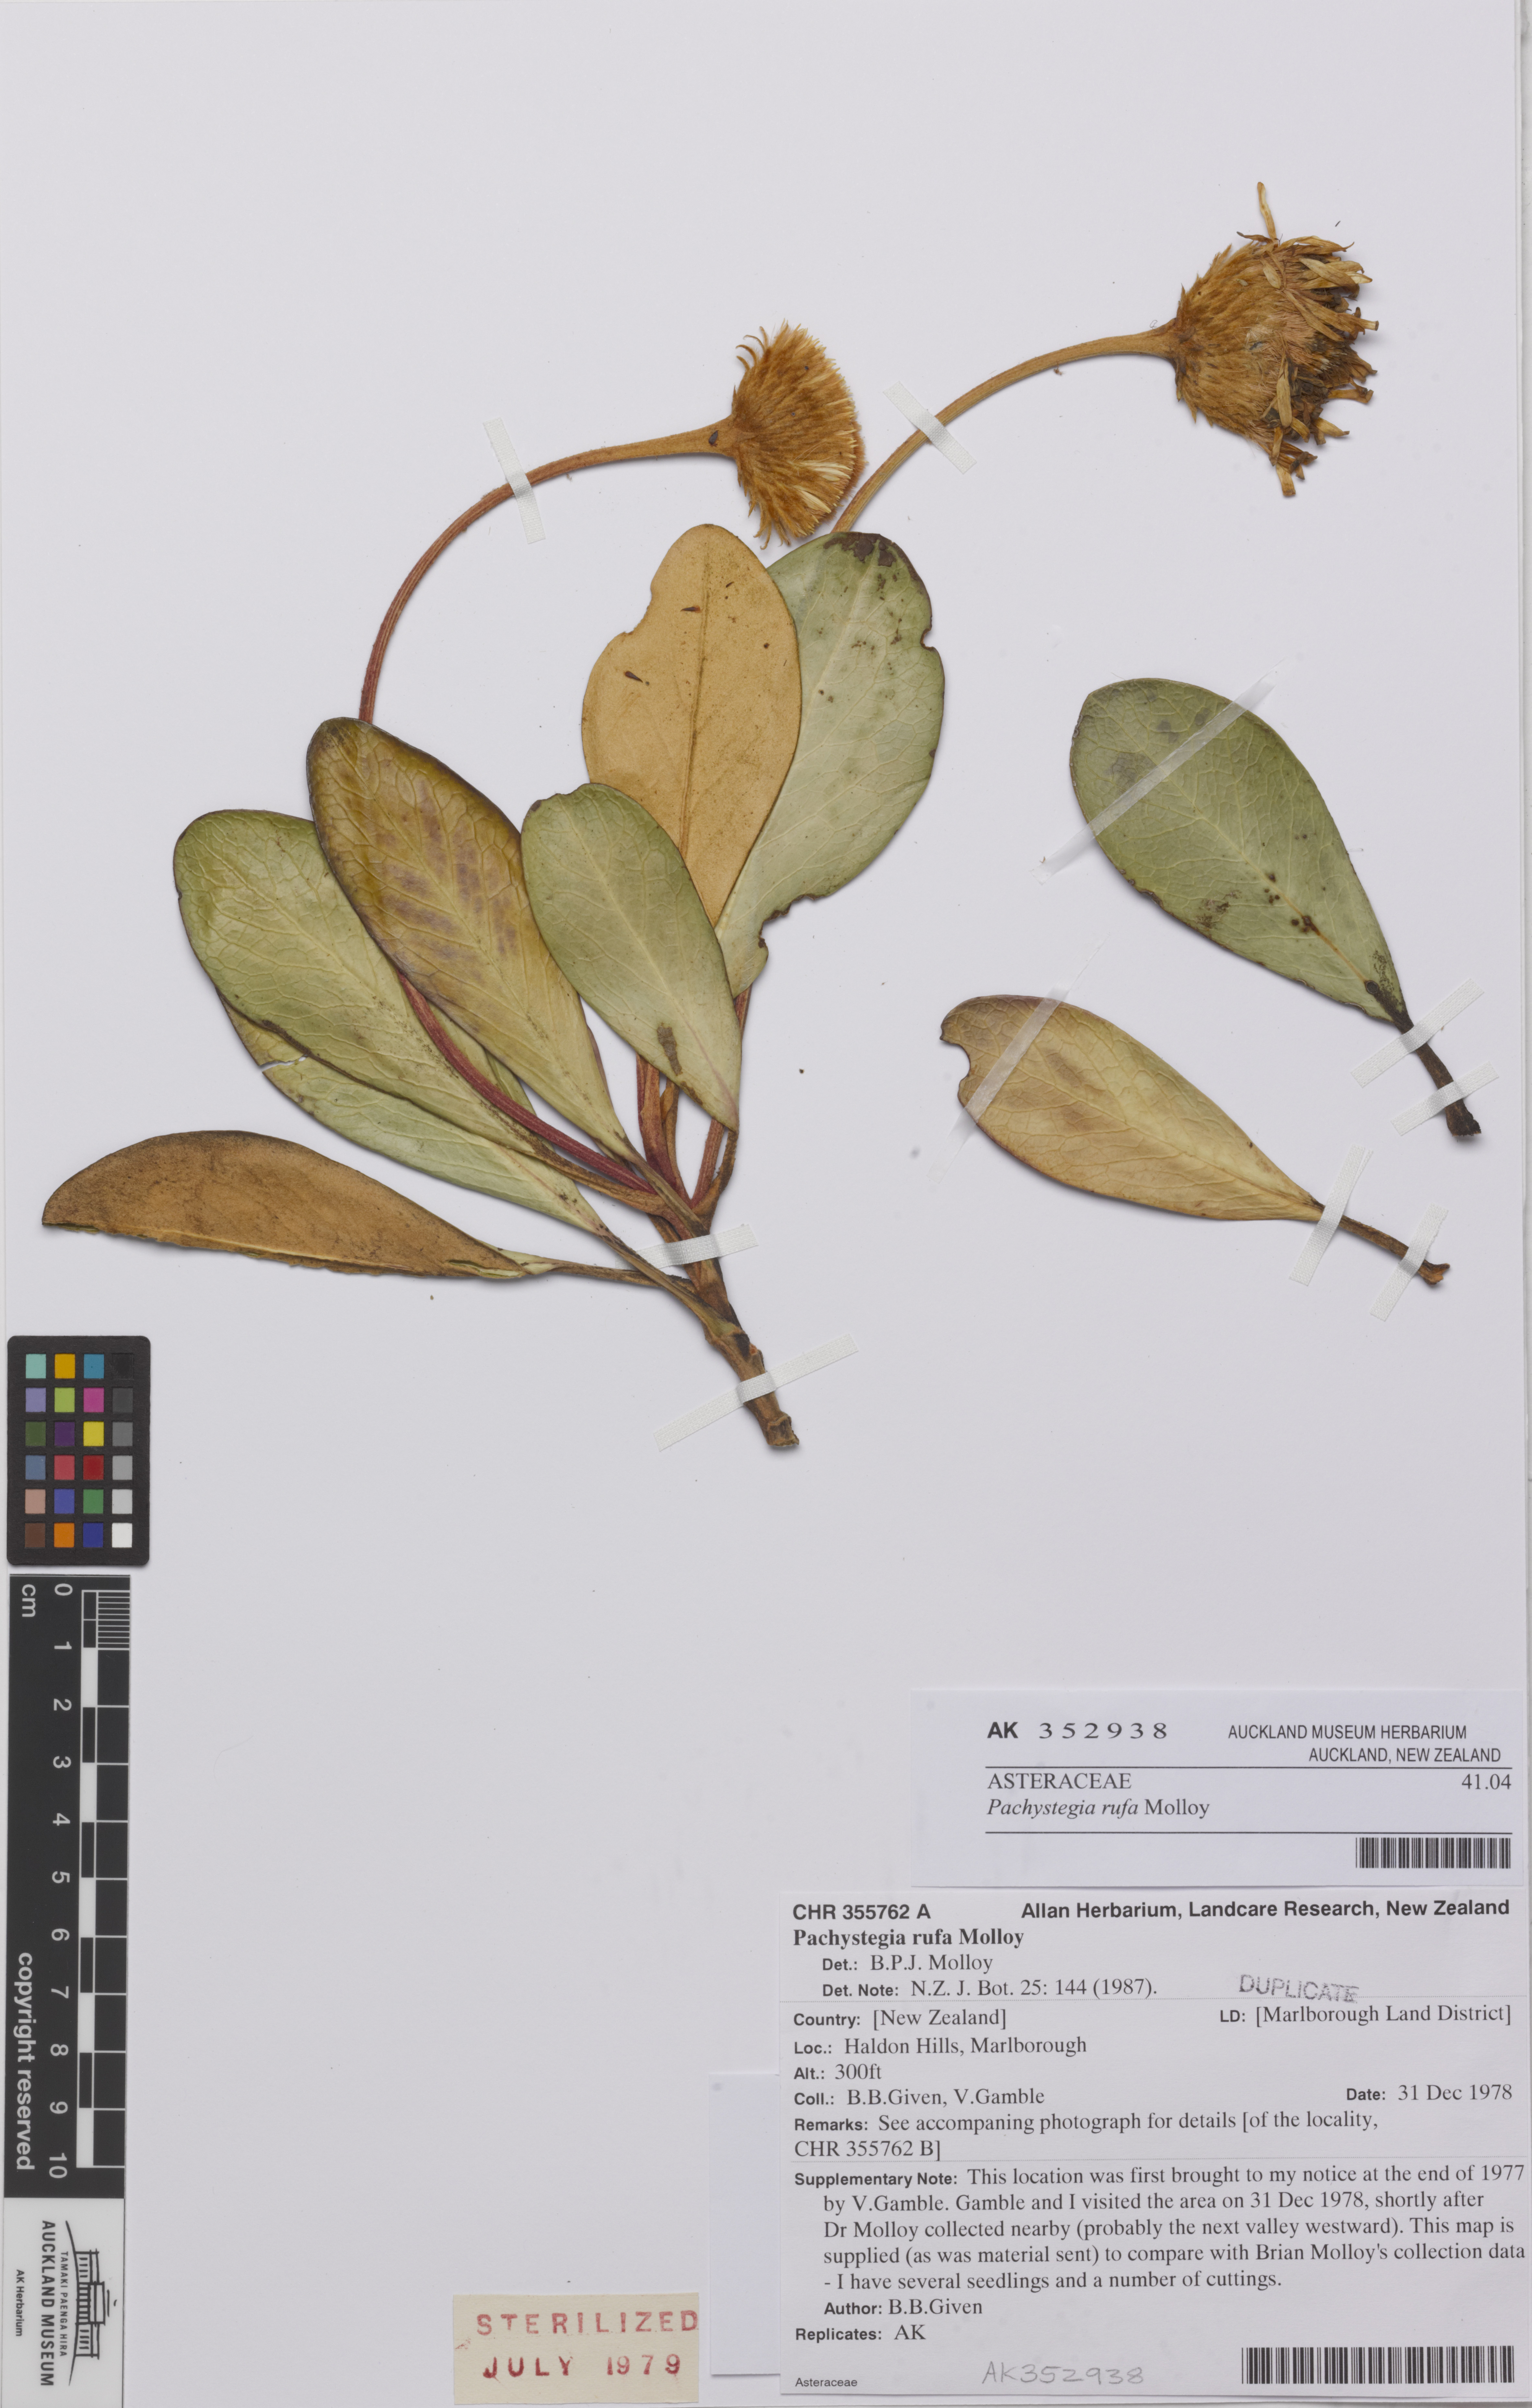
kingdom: Plantae
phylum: Tracheophyta
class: Magnoliopsida
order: Asterales
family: Asteraceae
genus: Pachystegia
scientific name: Pachystegia rufa
